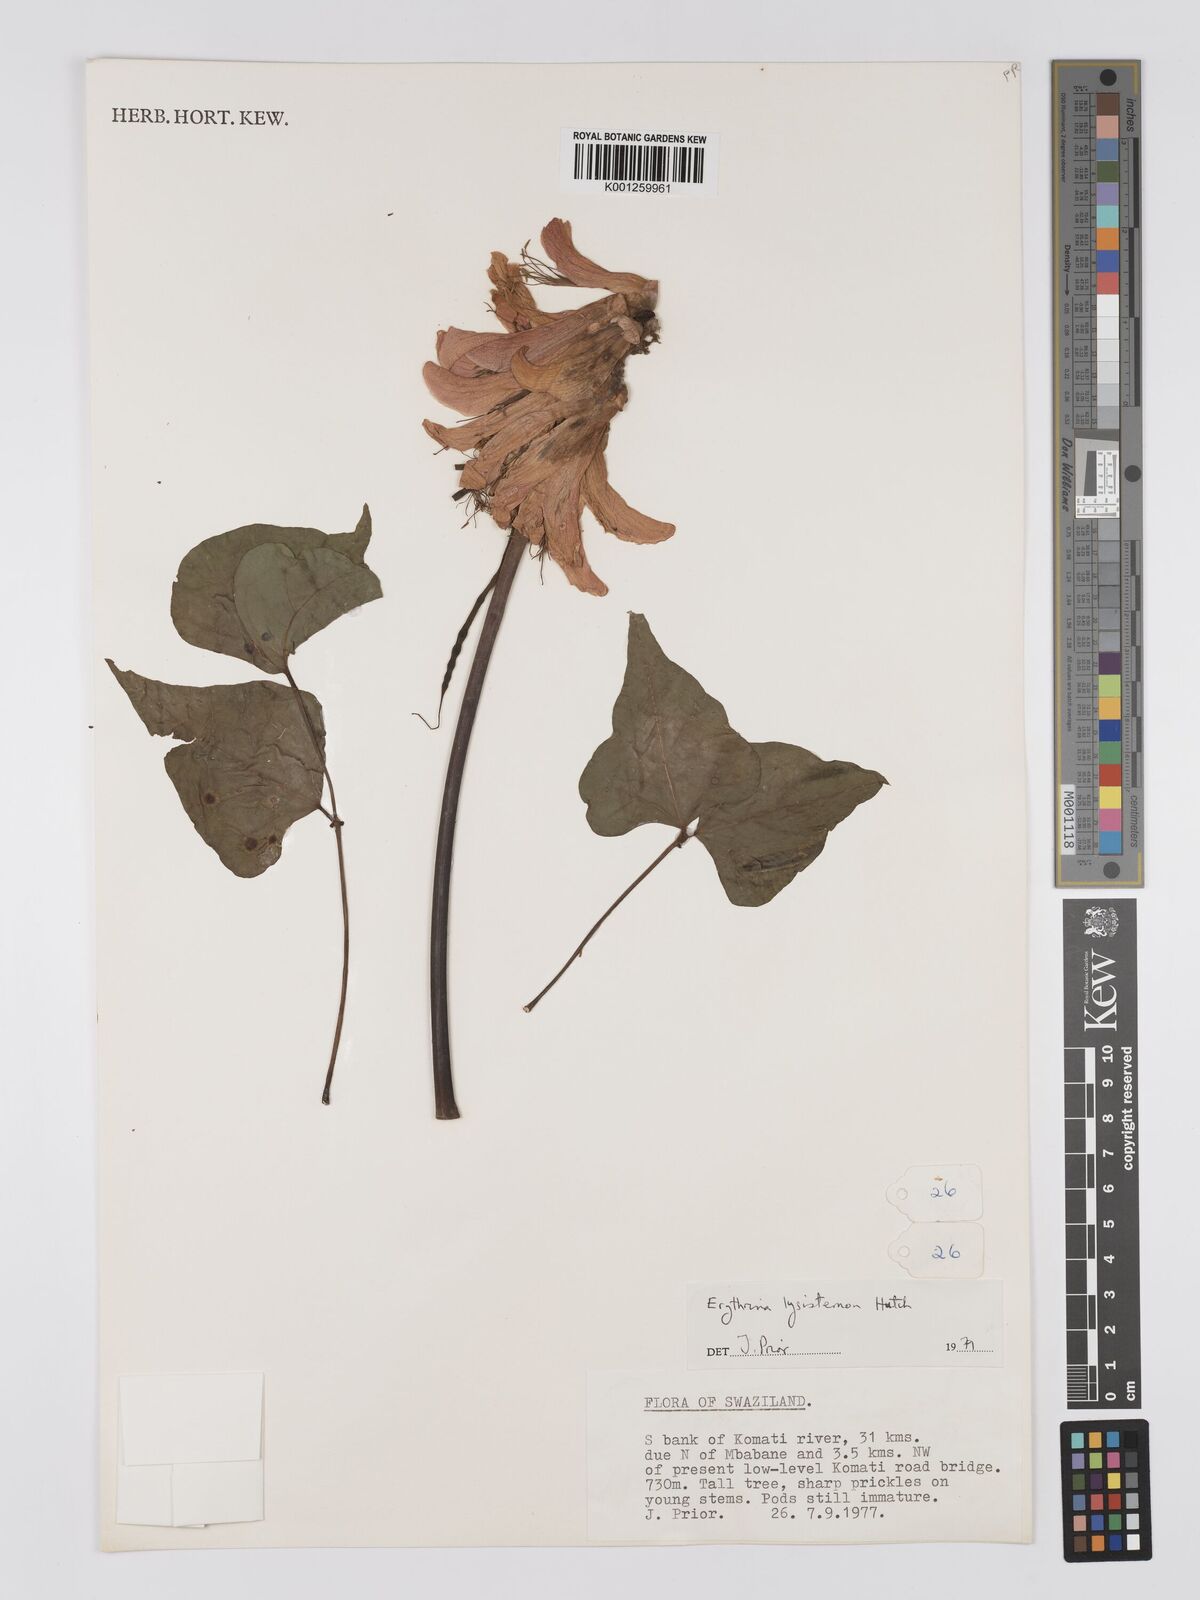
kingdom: Plantae
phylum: Tracheophyta
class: Magnoliopsida
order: Fabales
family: Fabaceae
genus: Erythrina
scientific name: Erythrina lysistemon
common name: Common coral tree
